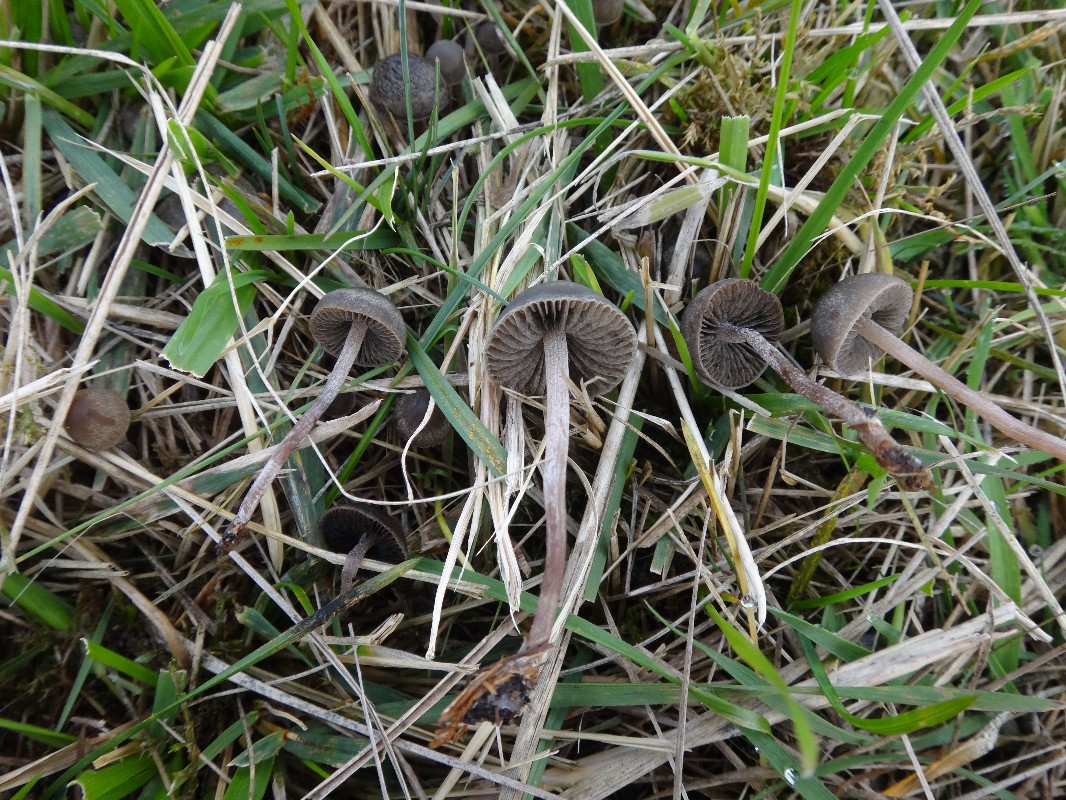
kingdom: Fungi
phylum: Basidiomycota
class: Agaricomycetes
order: Agaricales
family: Bolbitiaceae
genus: Panaeolus
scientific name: Panaeolus olivaceus
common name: lysstokket glanshat
